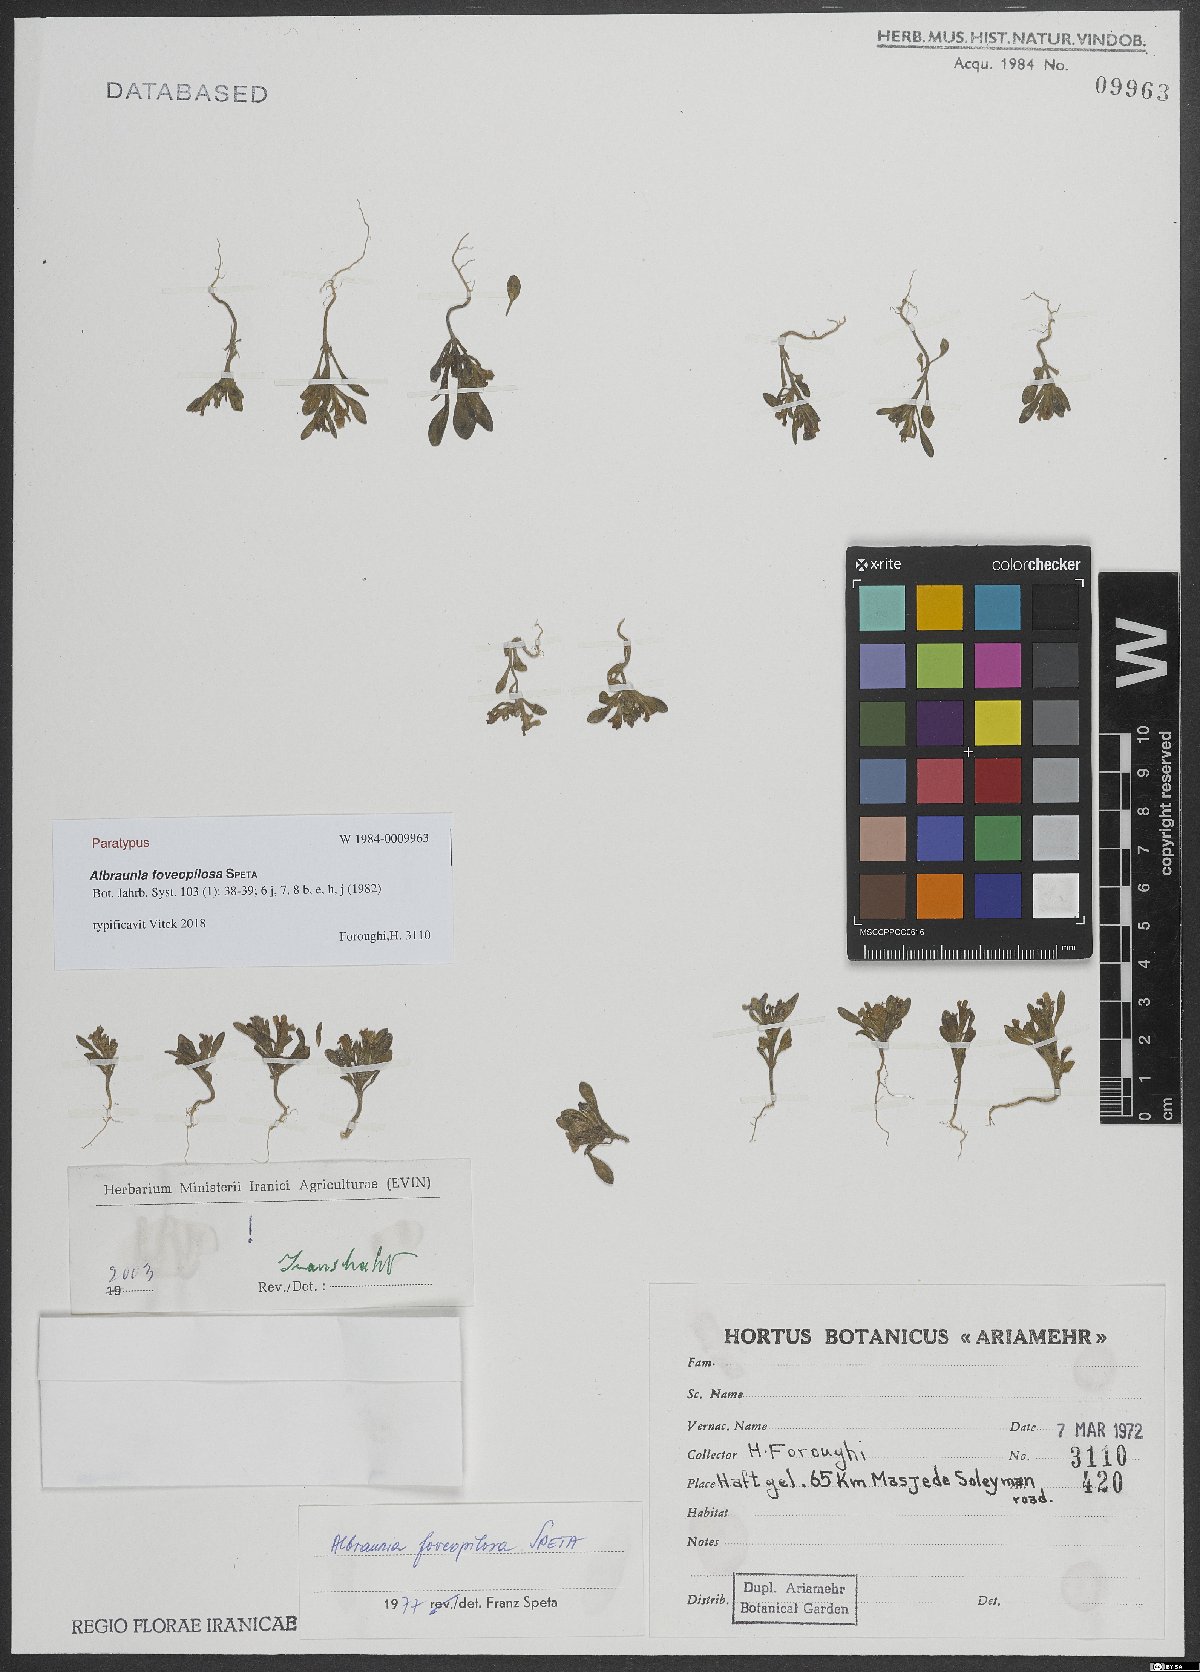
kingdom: Plantae
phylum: Tracheophyta
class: Magnoliopsida
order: Lamiales
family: Plantaginaceae
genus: Albraunia
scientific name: Albraunia foveopilosa
